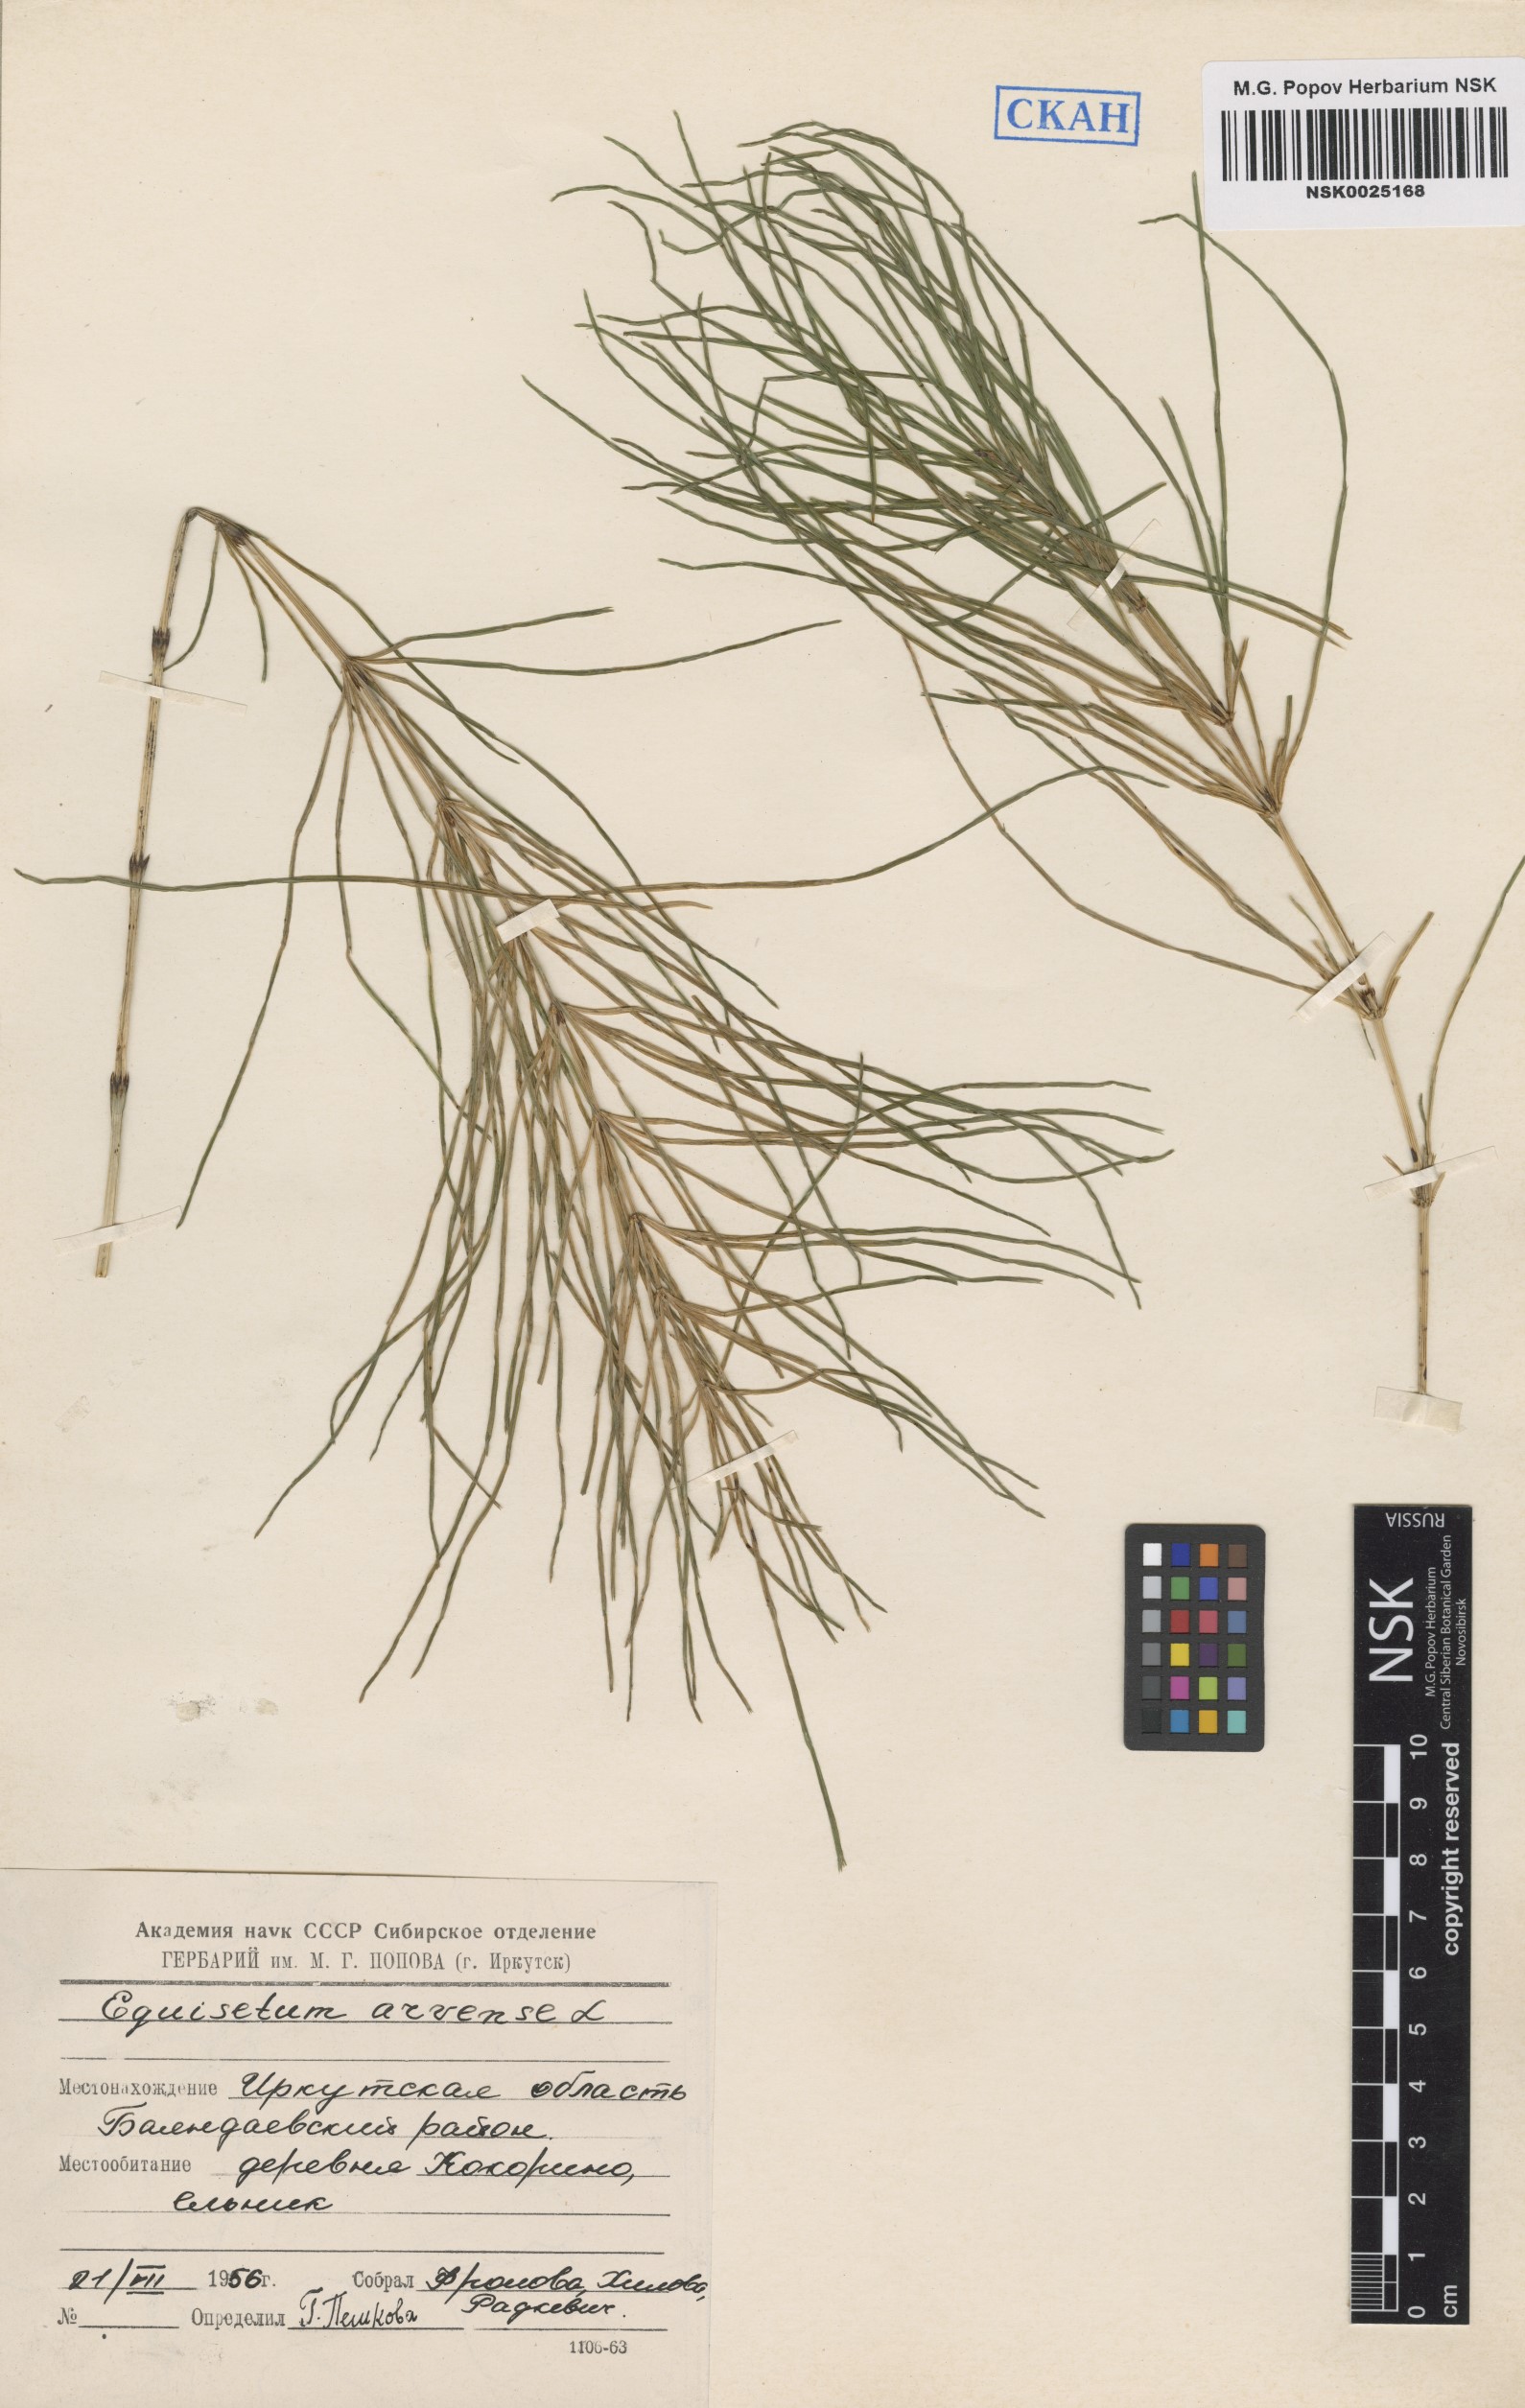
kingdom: Plantae
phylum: Tracheophyta
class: Polypodiopsida
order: Equisetales
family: Equisetaceae
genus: Equisetum
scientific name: Equisetum arvense
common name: Field horsetail
